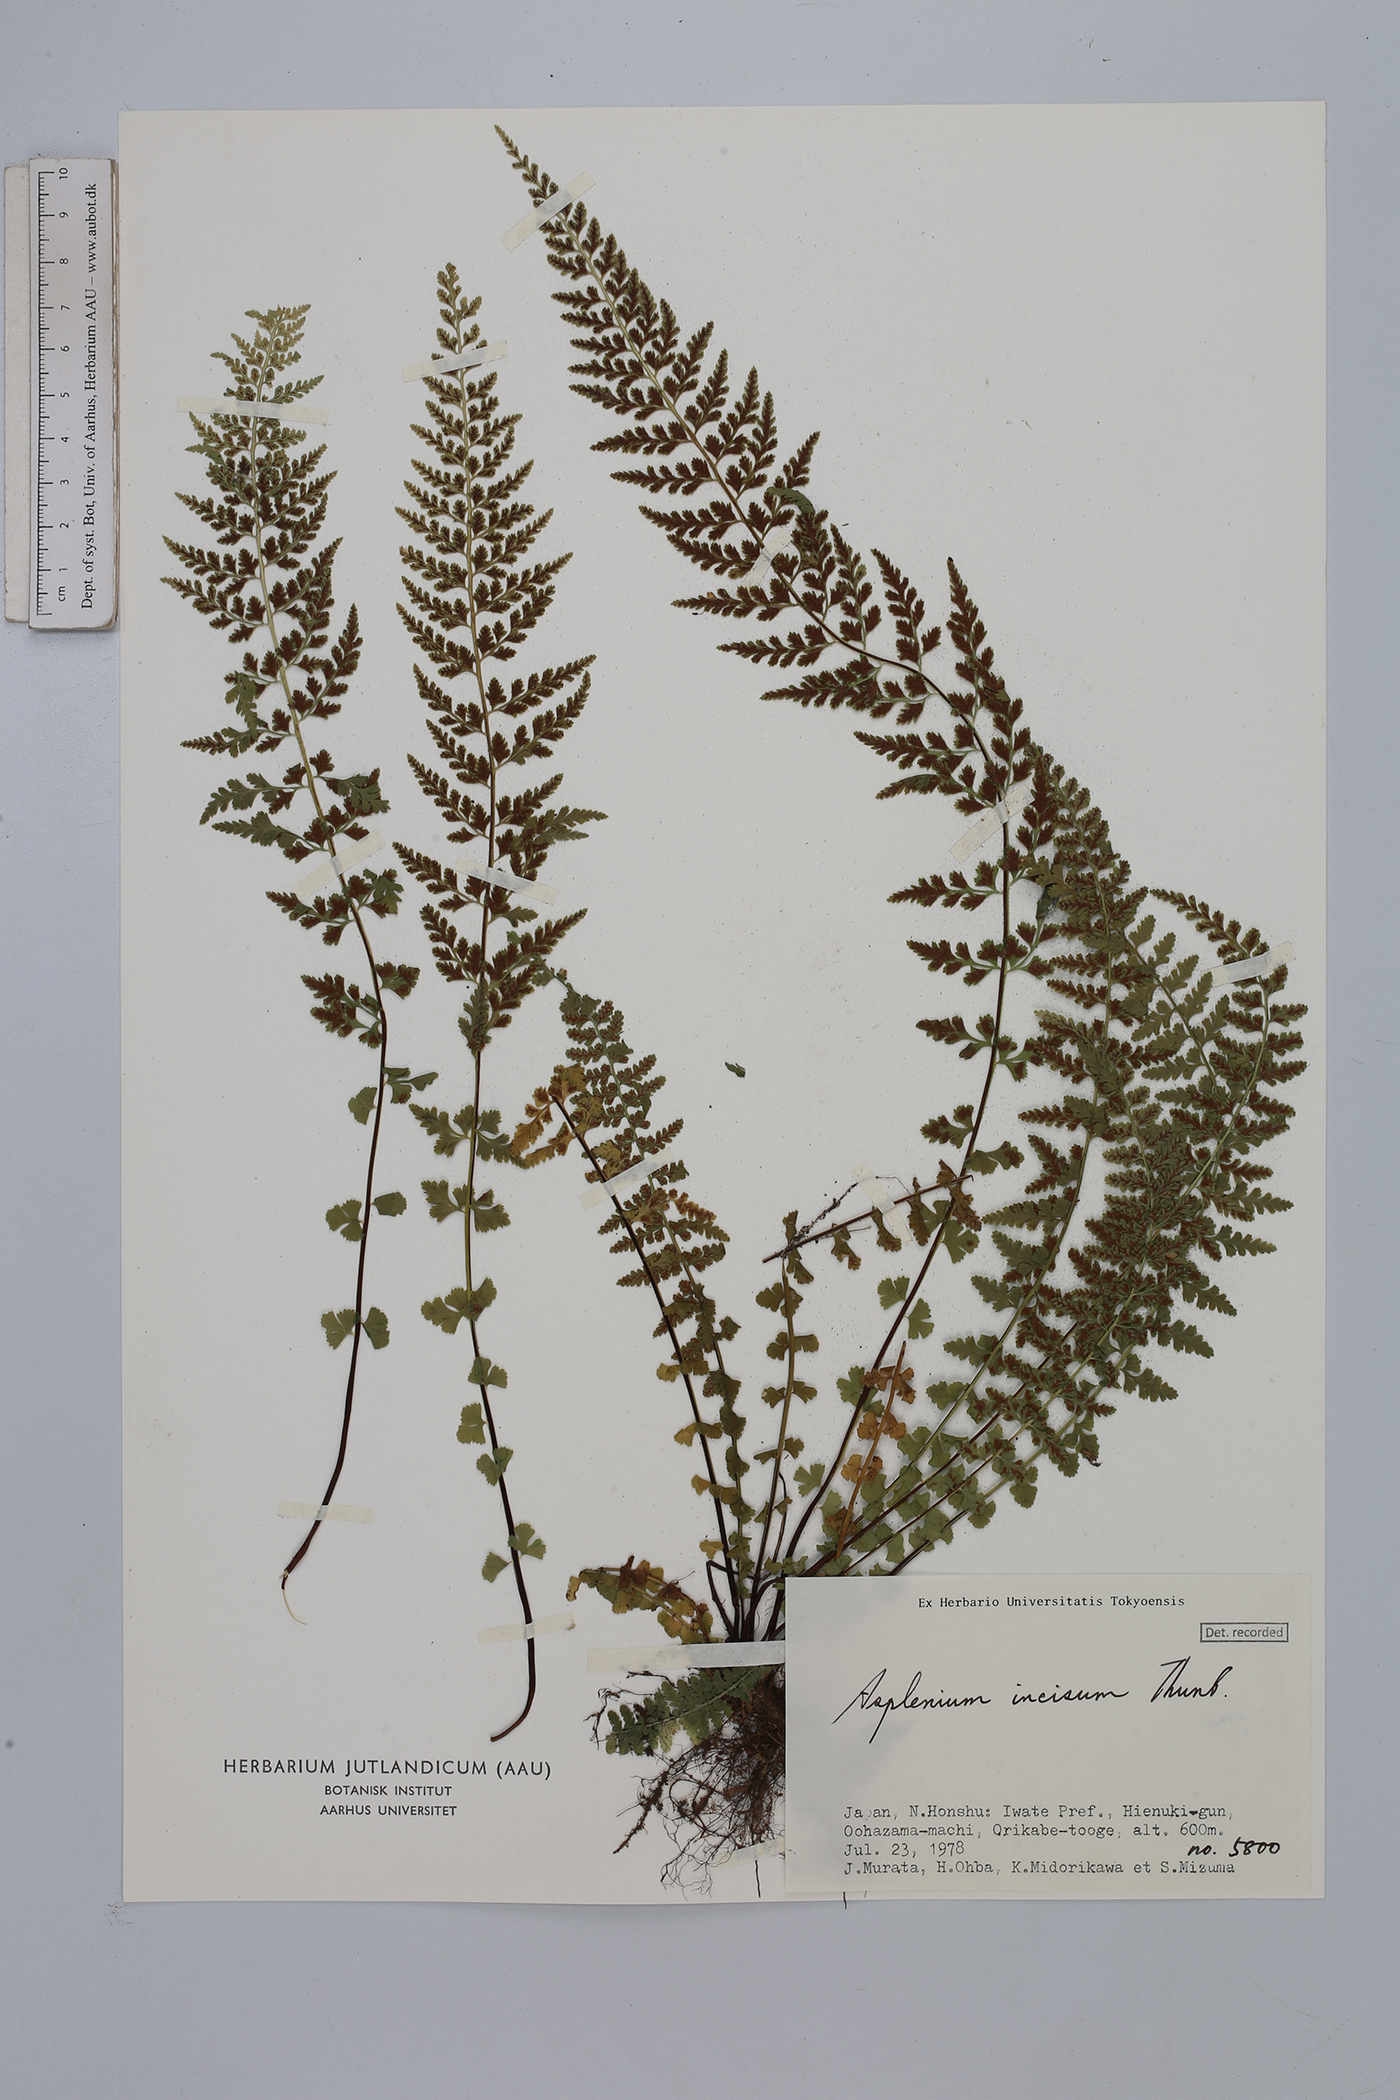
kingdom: Plantae
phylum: Tracheophyta
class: Polypodiopsida
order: Polypodiales
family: Aspleniaceae
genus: Asplenium
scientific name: Asplenium hybridum
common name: Dalmatian spleenwort
